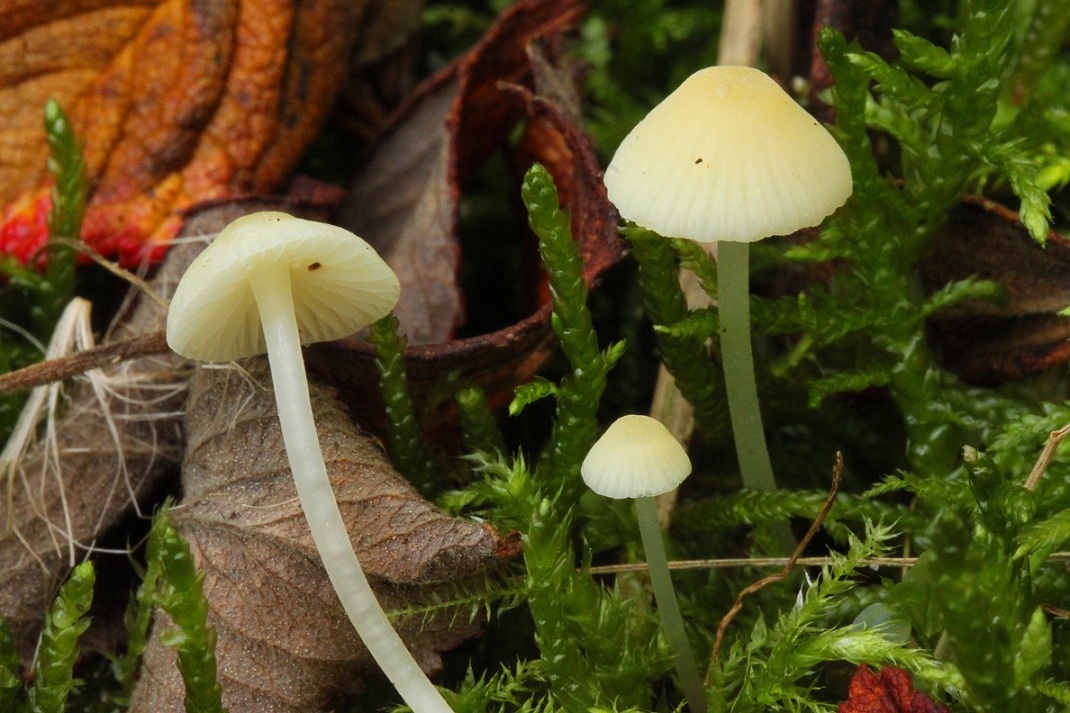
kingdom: Fungi
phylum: Basidiomycota
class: Agaricomycetes
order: Agaricales
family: Mycenaceae
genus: Atheniella
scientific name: Atheniella flavoalba
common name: gulhvid huesvamp
